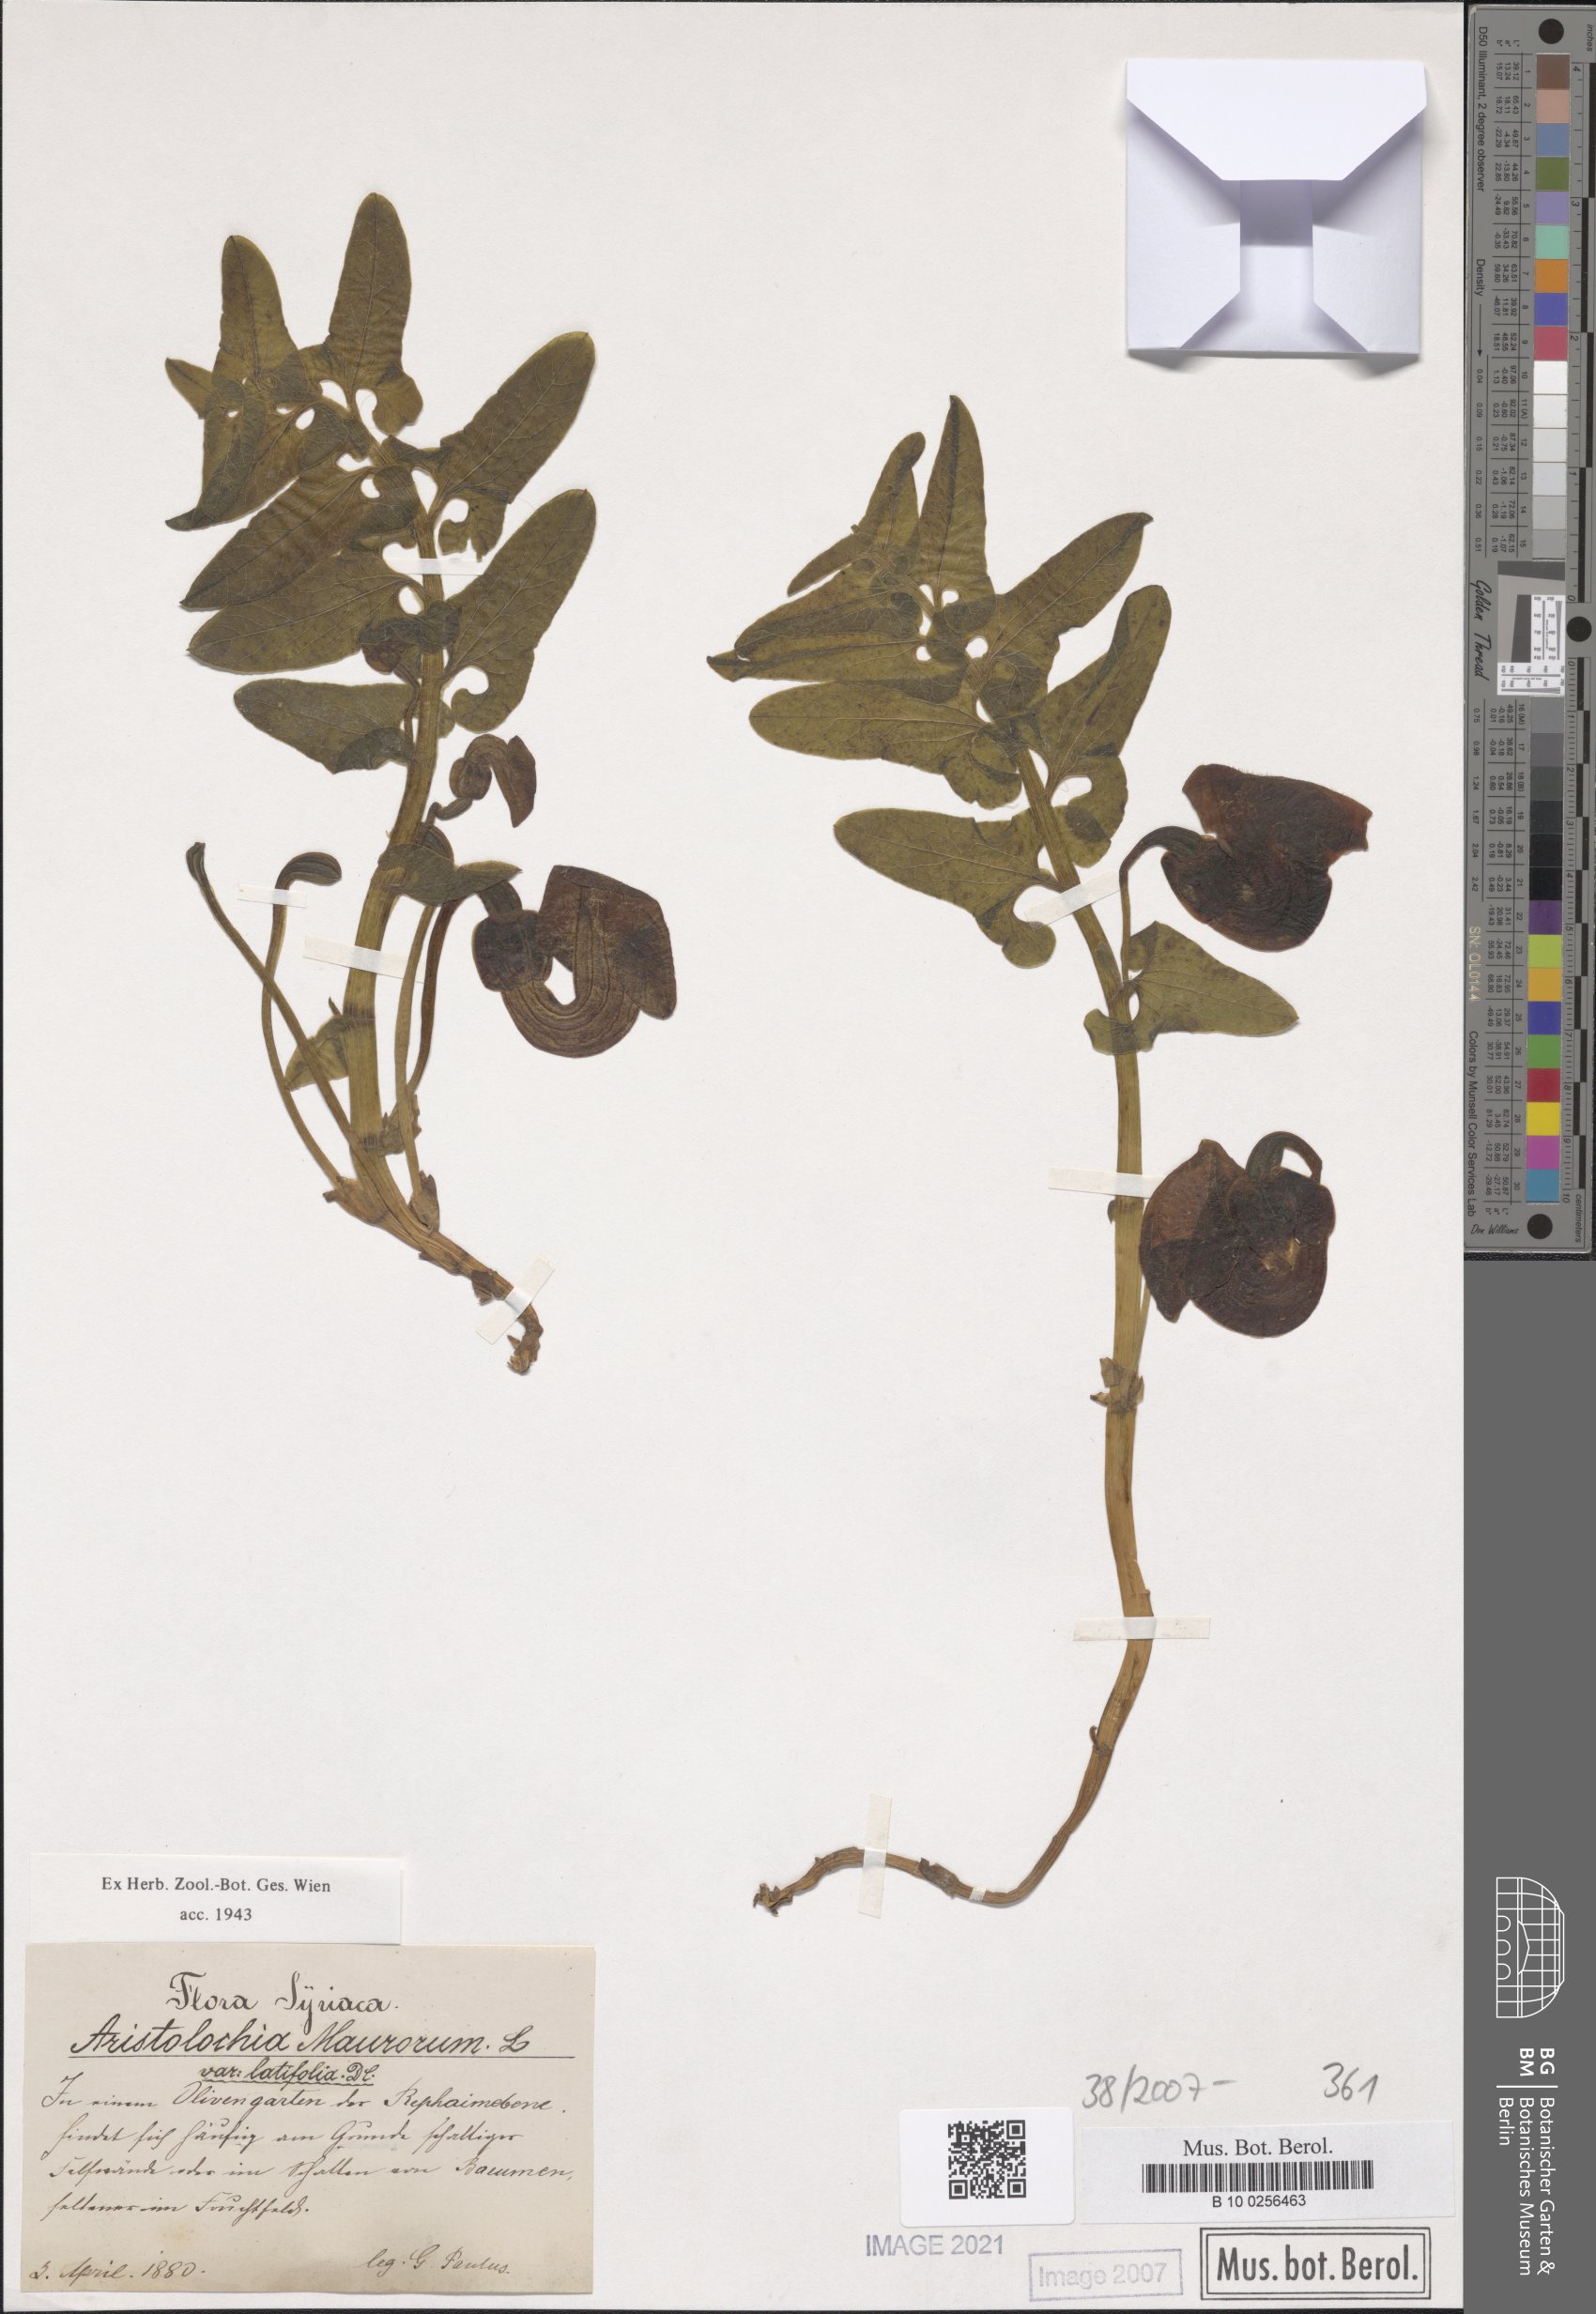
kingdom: Plantae
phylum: Tracheophyta
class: Magnoliopsida
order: Piperales
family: Aristolochiaceae
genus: Aristolochia
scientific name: Aristolochia cilicica
